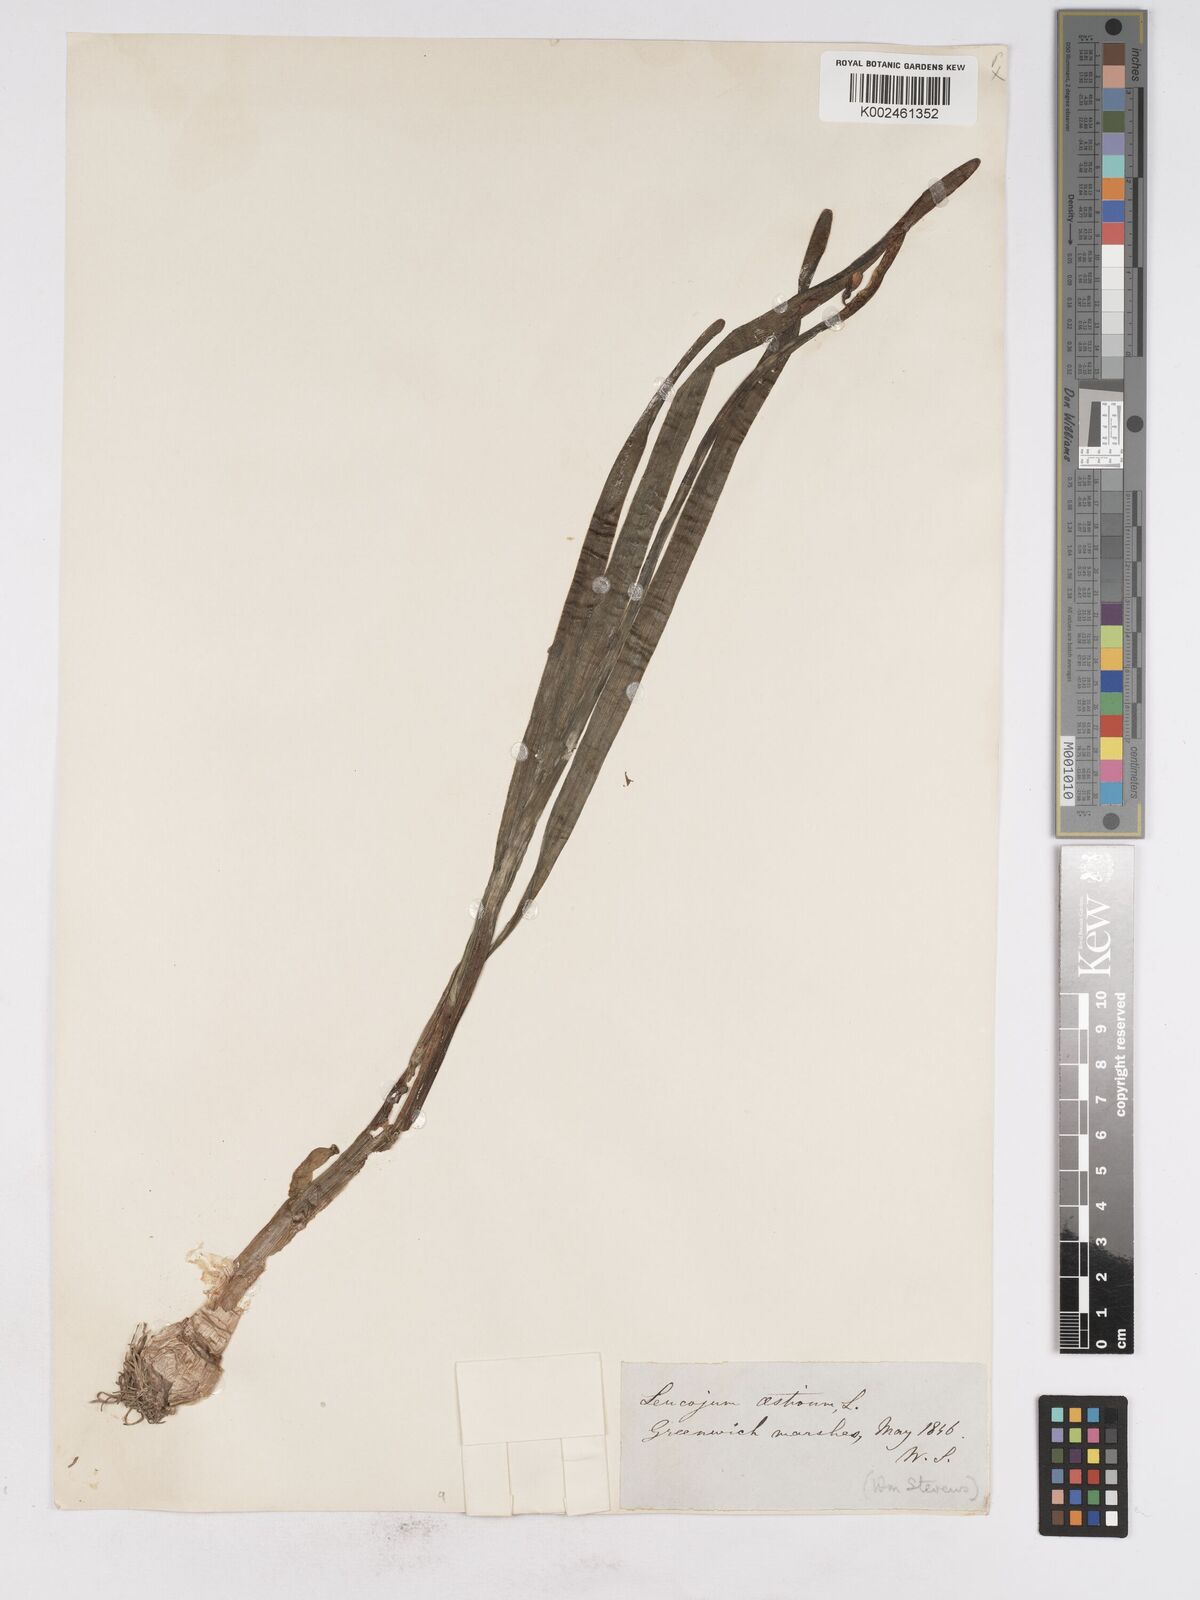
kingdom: Plantae
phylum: Tracheophyta
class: Liliopsida
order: Asparagales
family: Amaryllidaceae
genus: Leucojum
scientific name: Leucojum aestivum
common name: Summer snowflake
